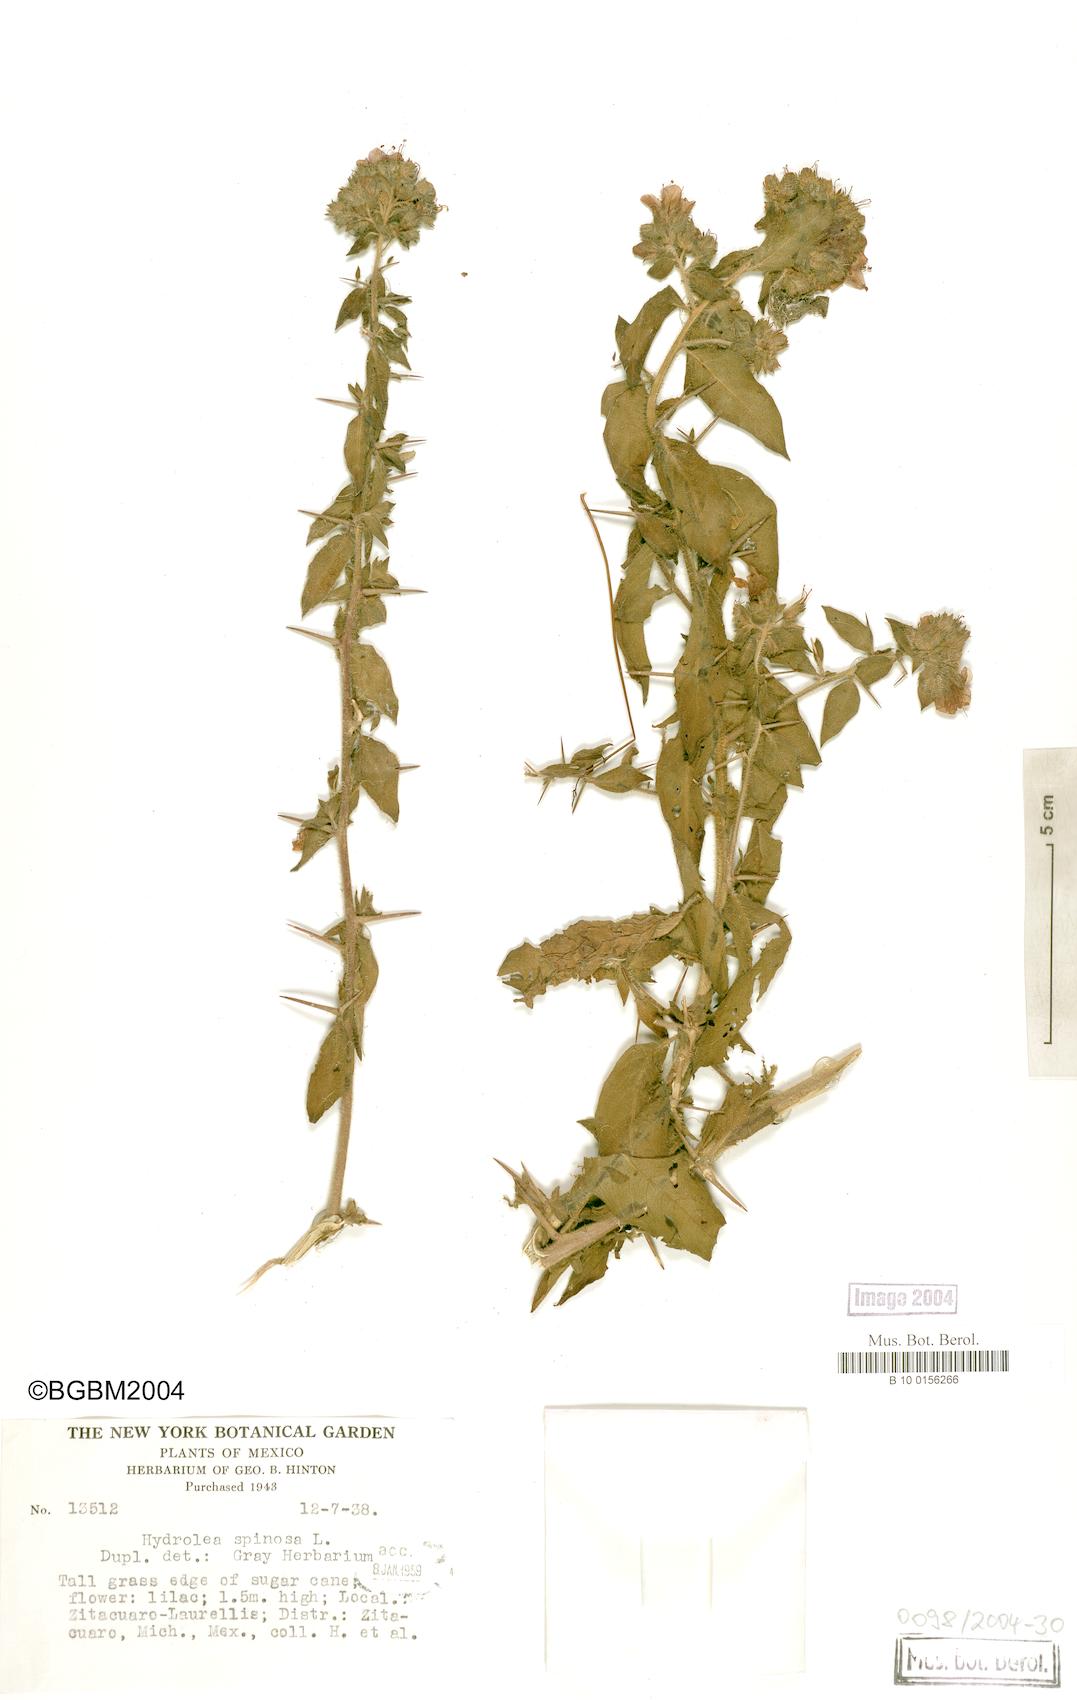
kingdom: Plantae
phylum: Tracheophyta
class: Magnoliopsida
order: Solanales
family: Hydroleaceae
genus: Hydrolea
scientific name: Hydrolea spinosa
